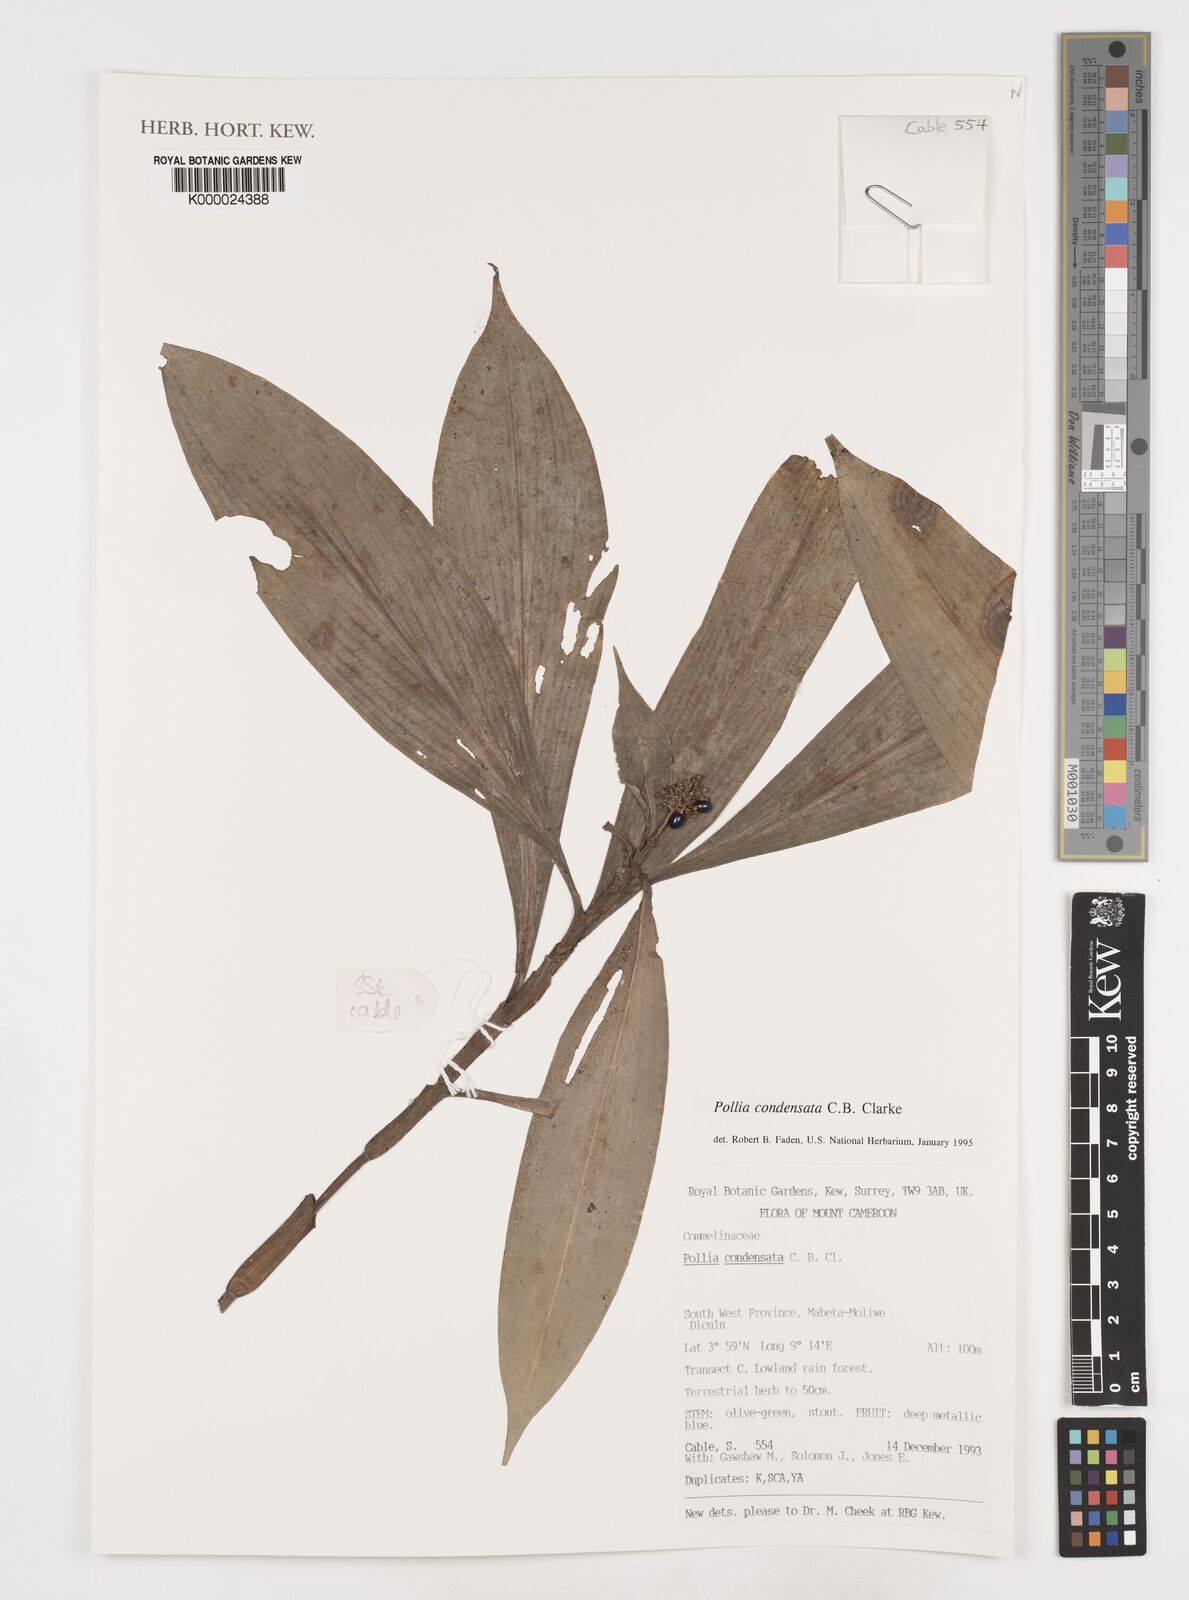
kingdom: Plantae
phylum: Tracheophyta
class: Liliopsida
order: Commelinales
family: Commelinaceae
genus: Pollia
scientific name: Pollia condensata
